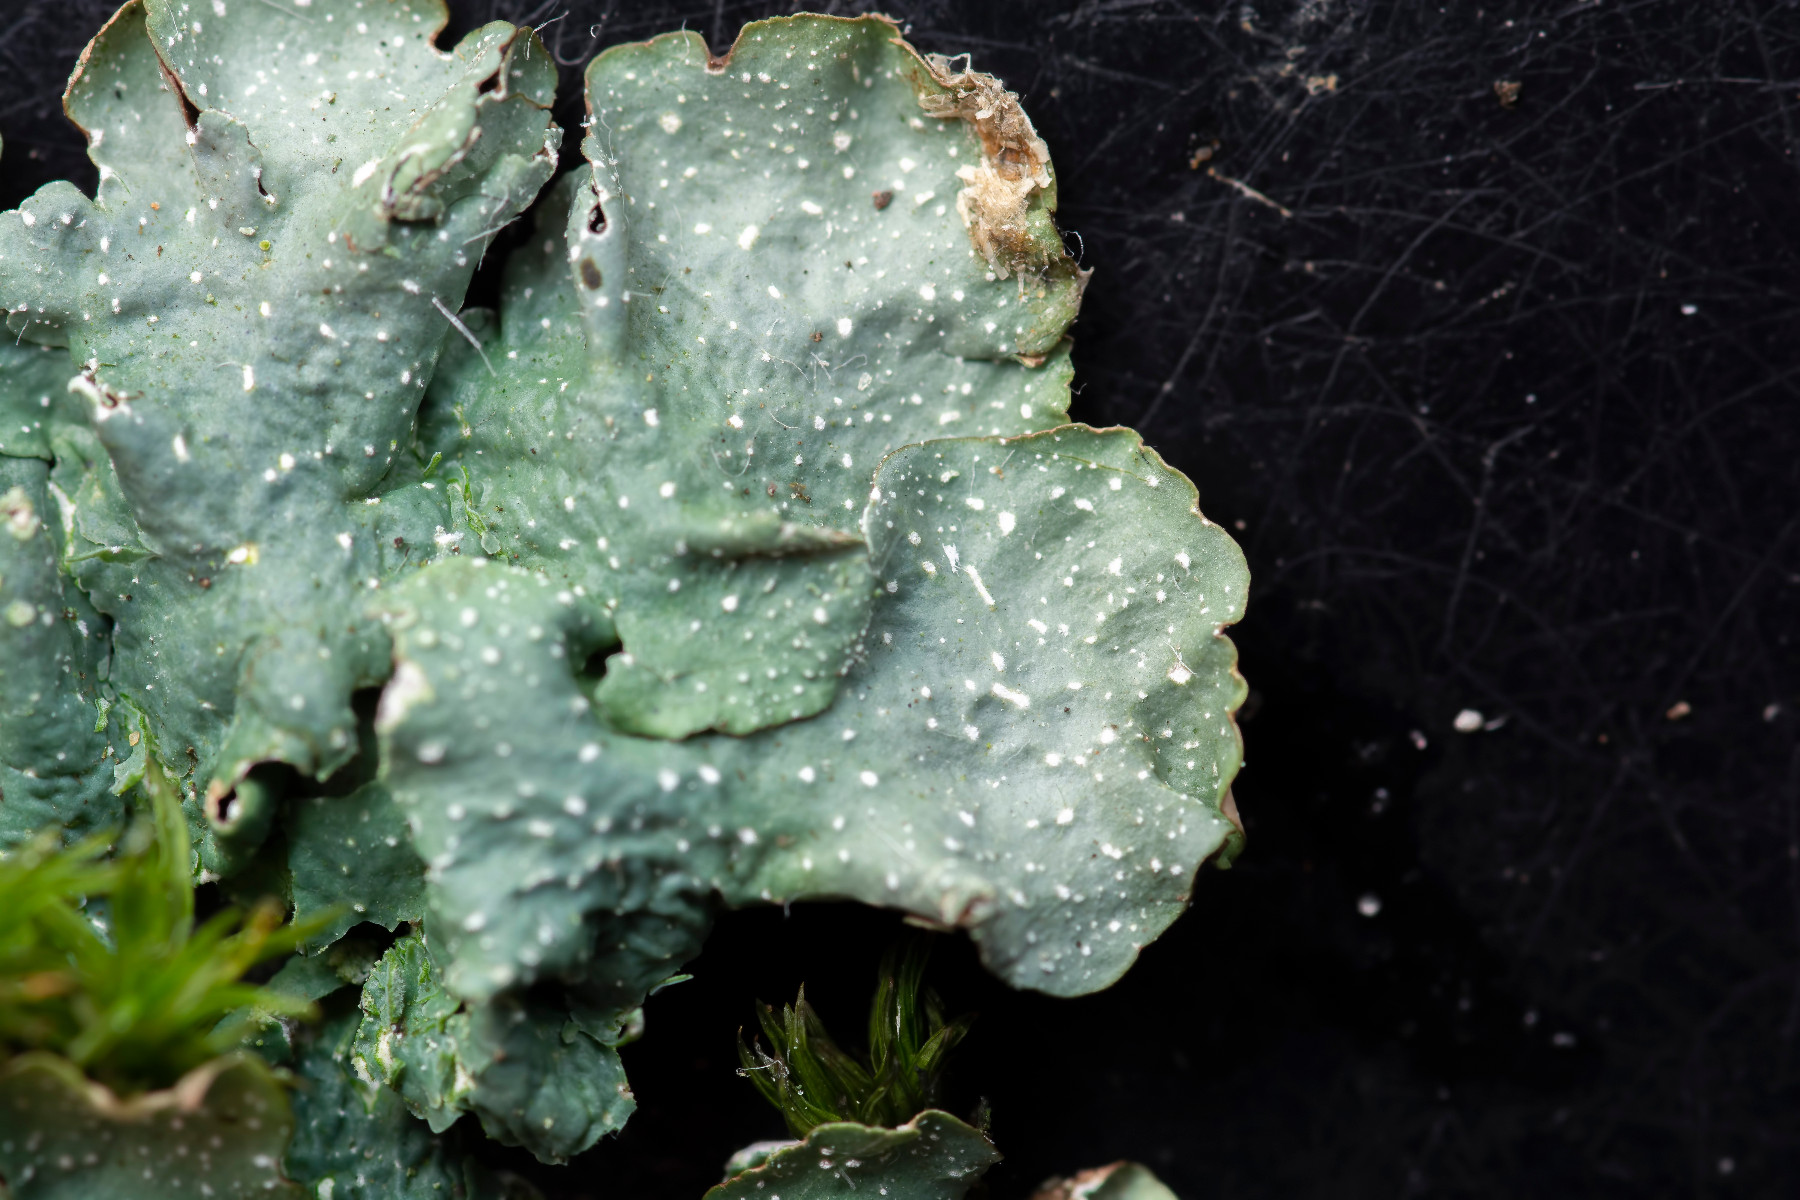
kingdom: Fungi
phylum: Ascomycota
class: Lecanoromycetes
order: Lecanorales
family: Parmeliaceae
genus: Punctelia
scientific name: Punctelia borreri
